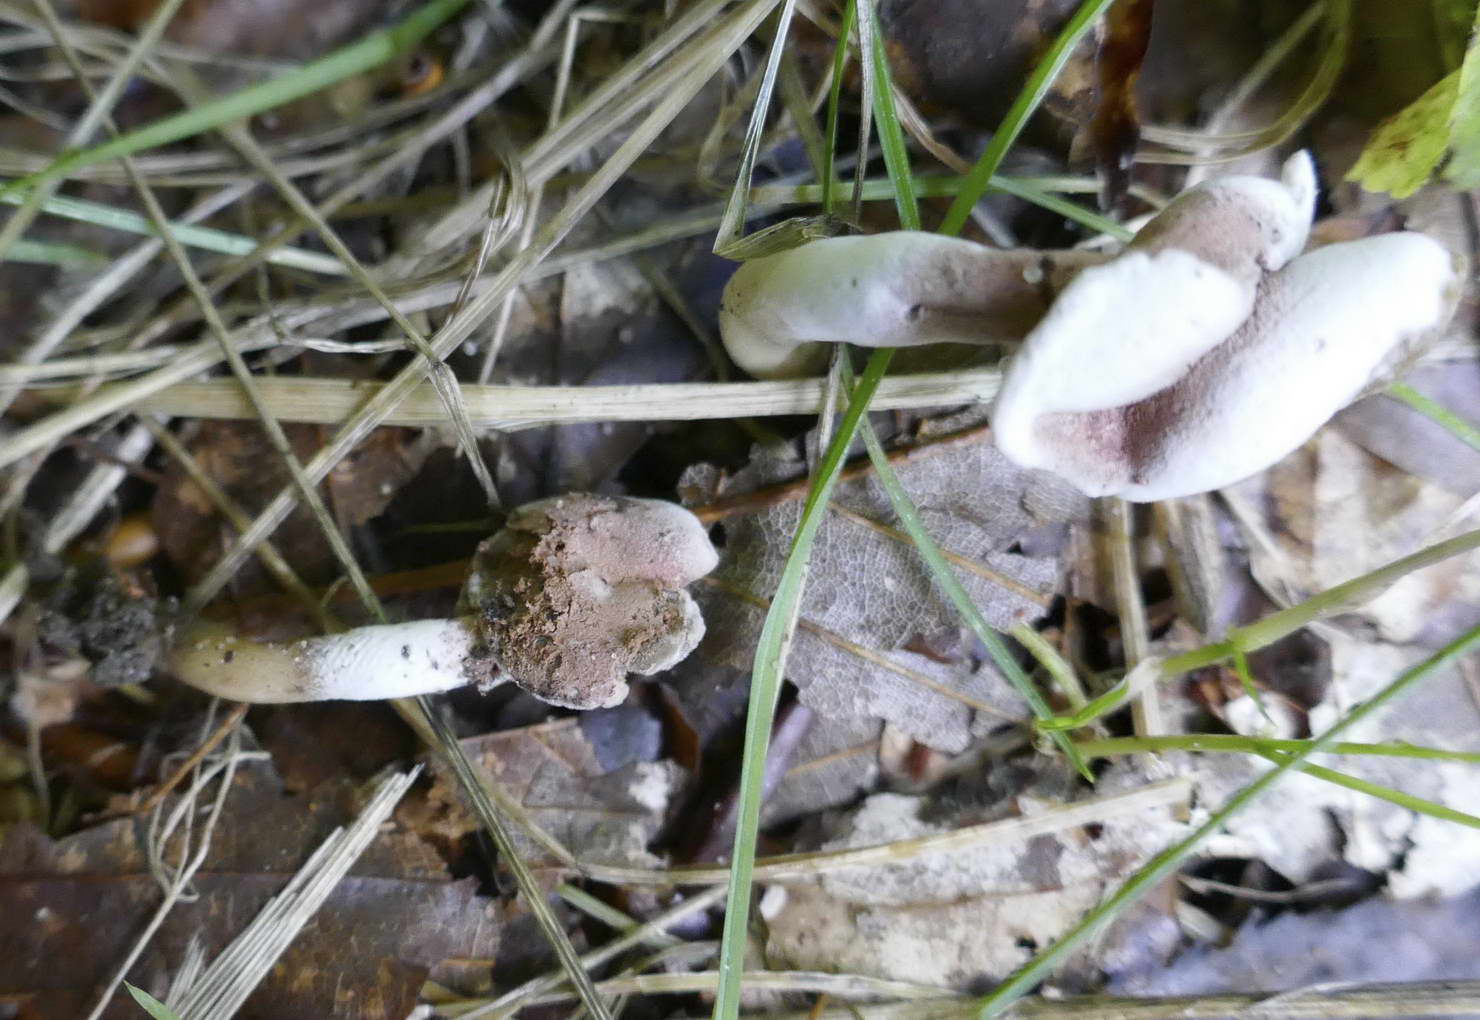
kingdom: Fungi
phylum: Ascomycota
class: Sordariomycetes
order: Hypocreales
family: Hypocreaceae
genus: Hypomyces
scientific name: Hypomyces cervinus
